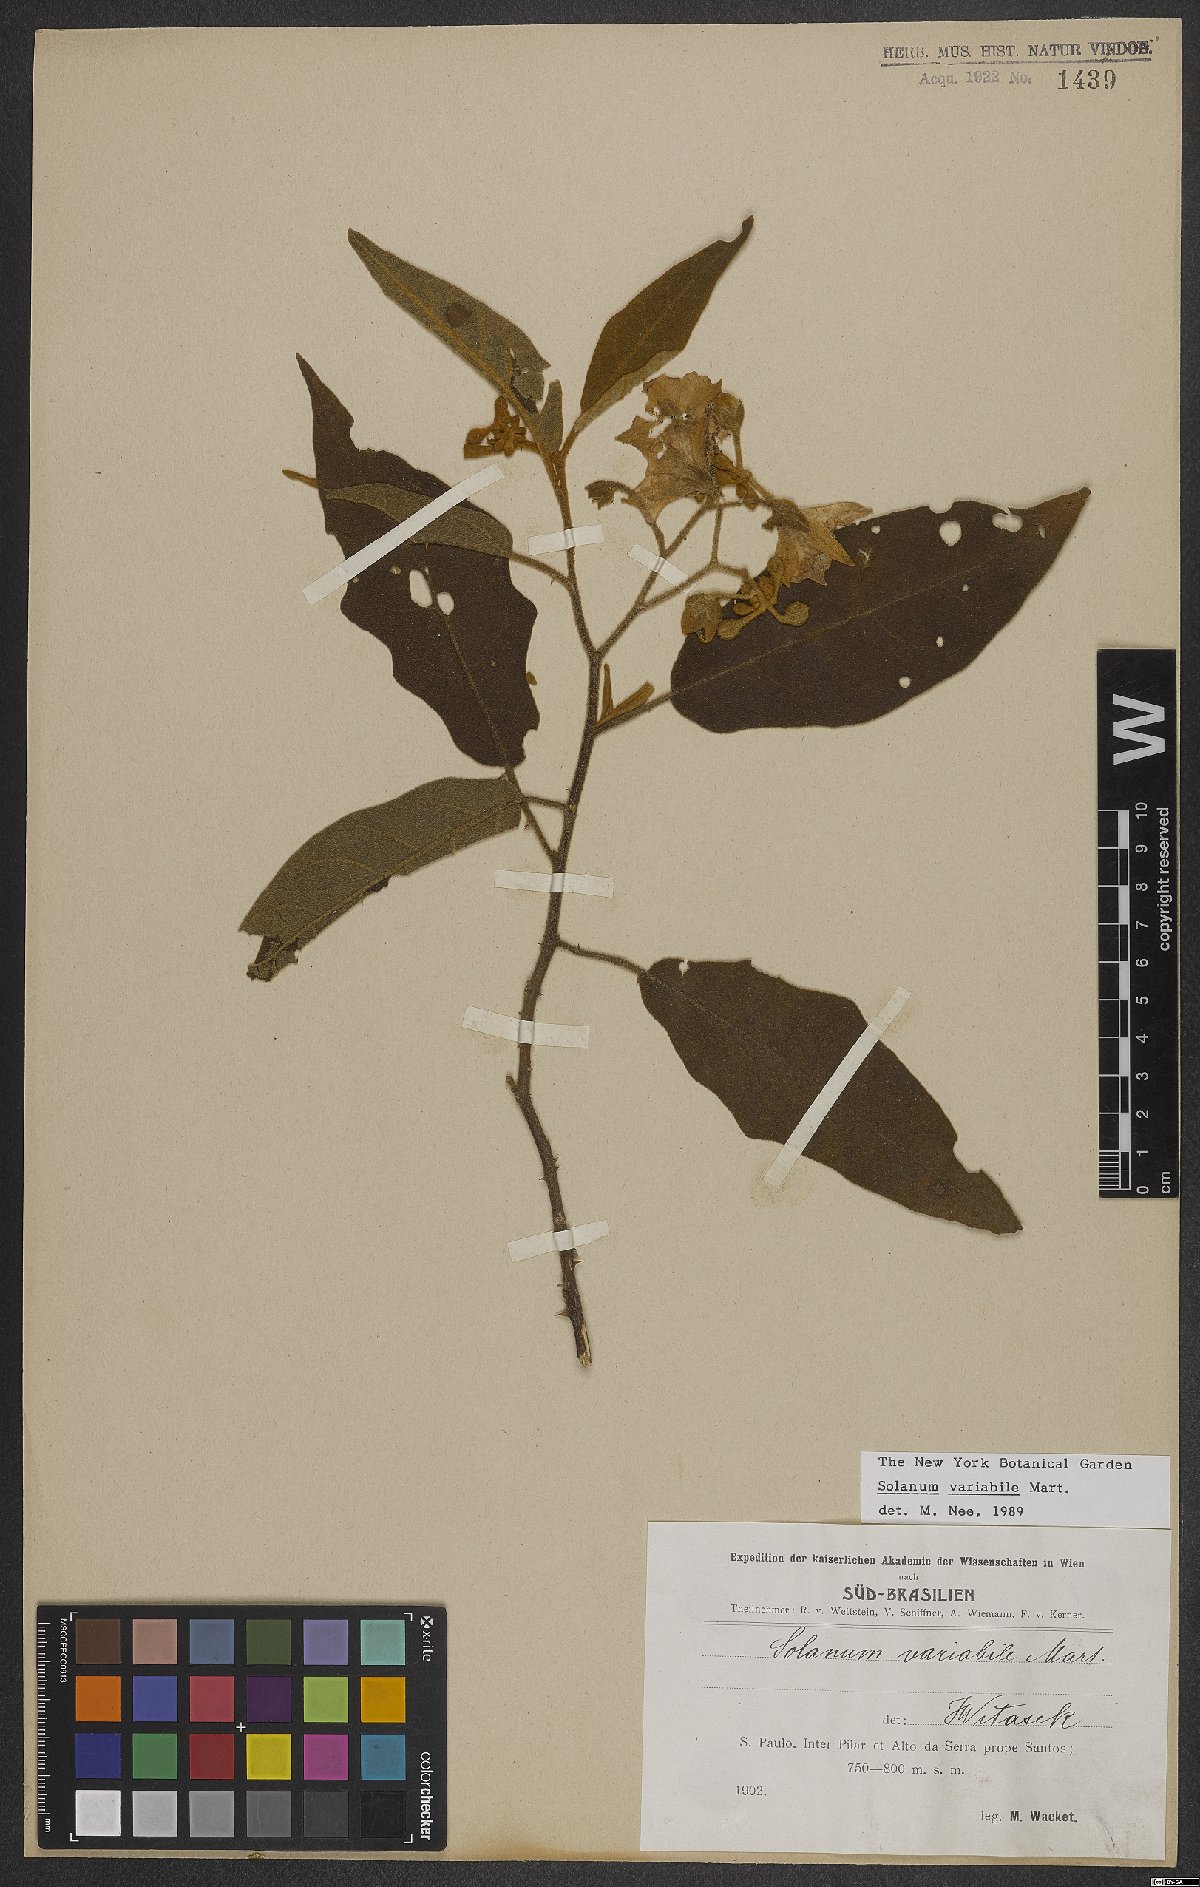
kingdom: Plantae
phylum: Tracheophyta
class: Magnoliopsida
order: Solanales
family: Solanaceae
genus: Solanum
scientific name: Solanum variabile
